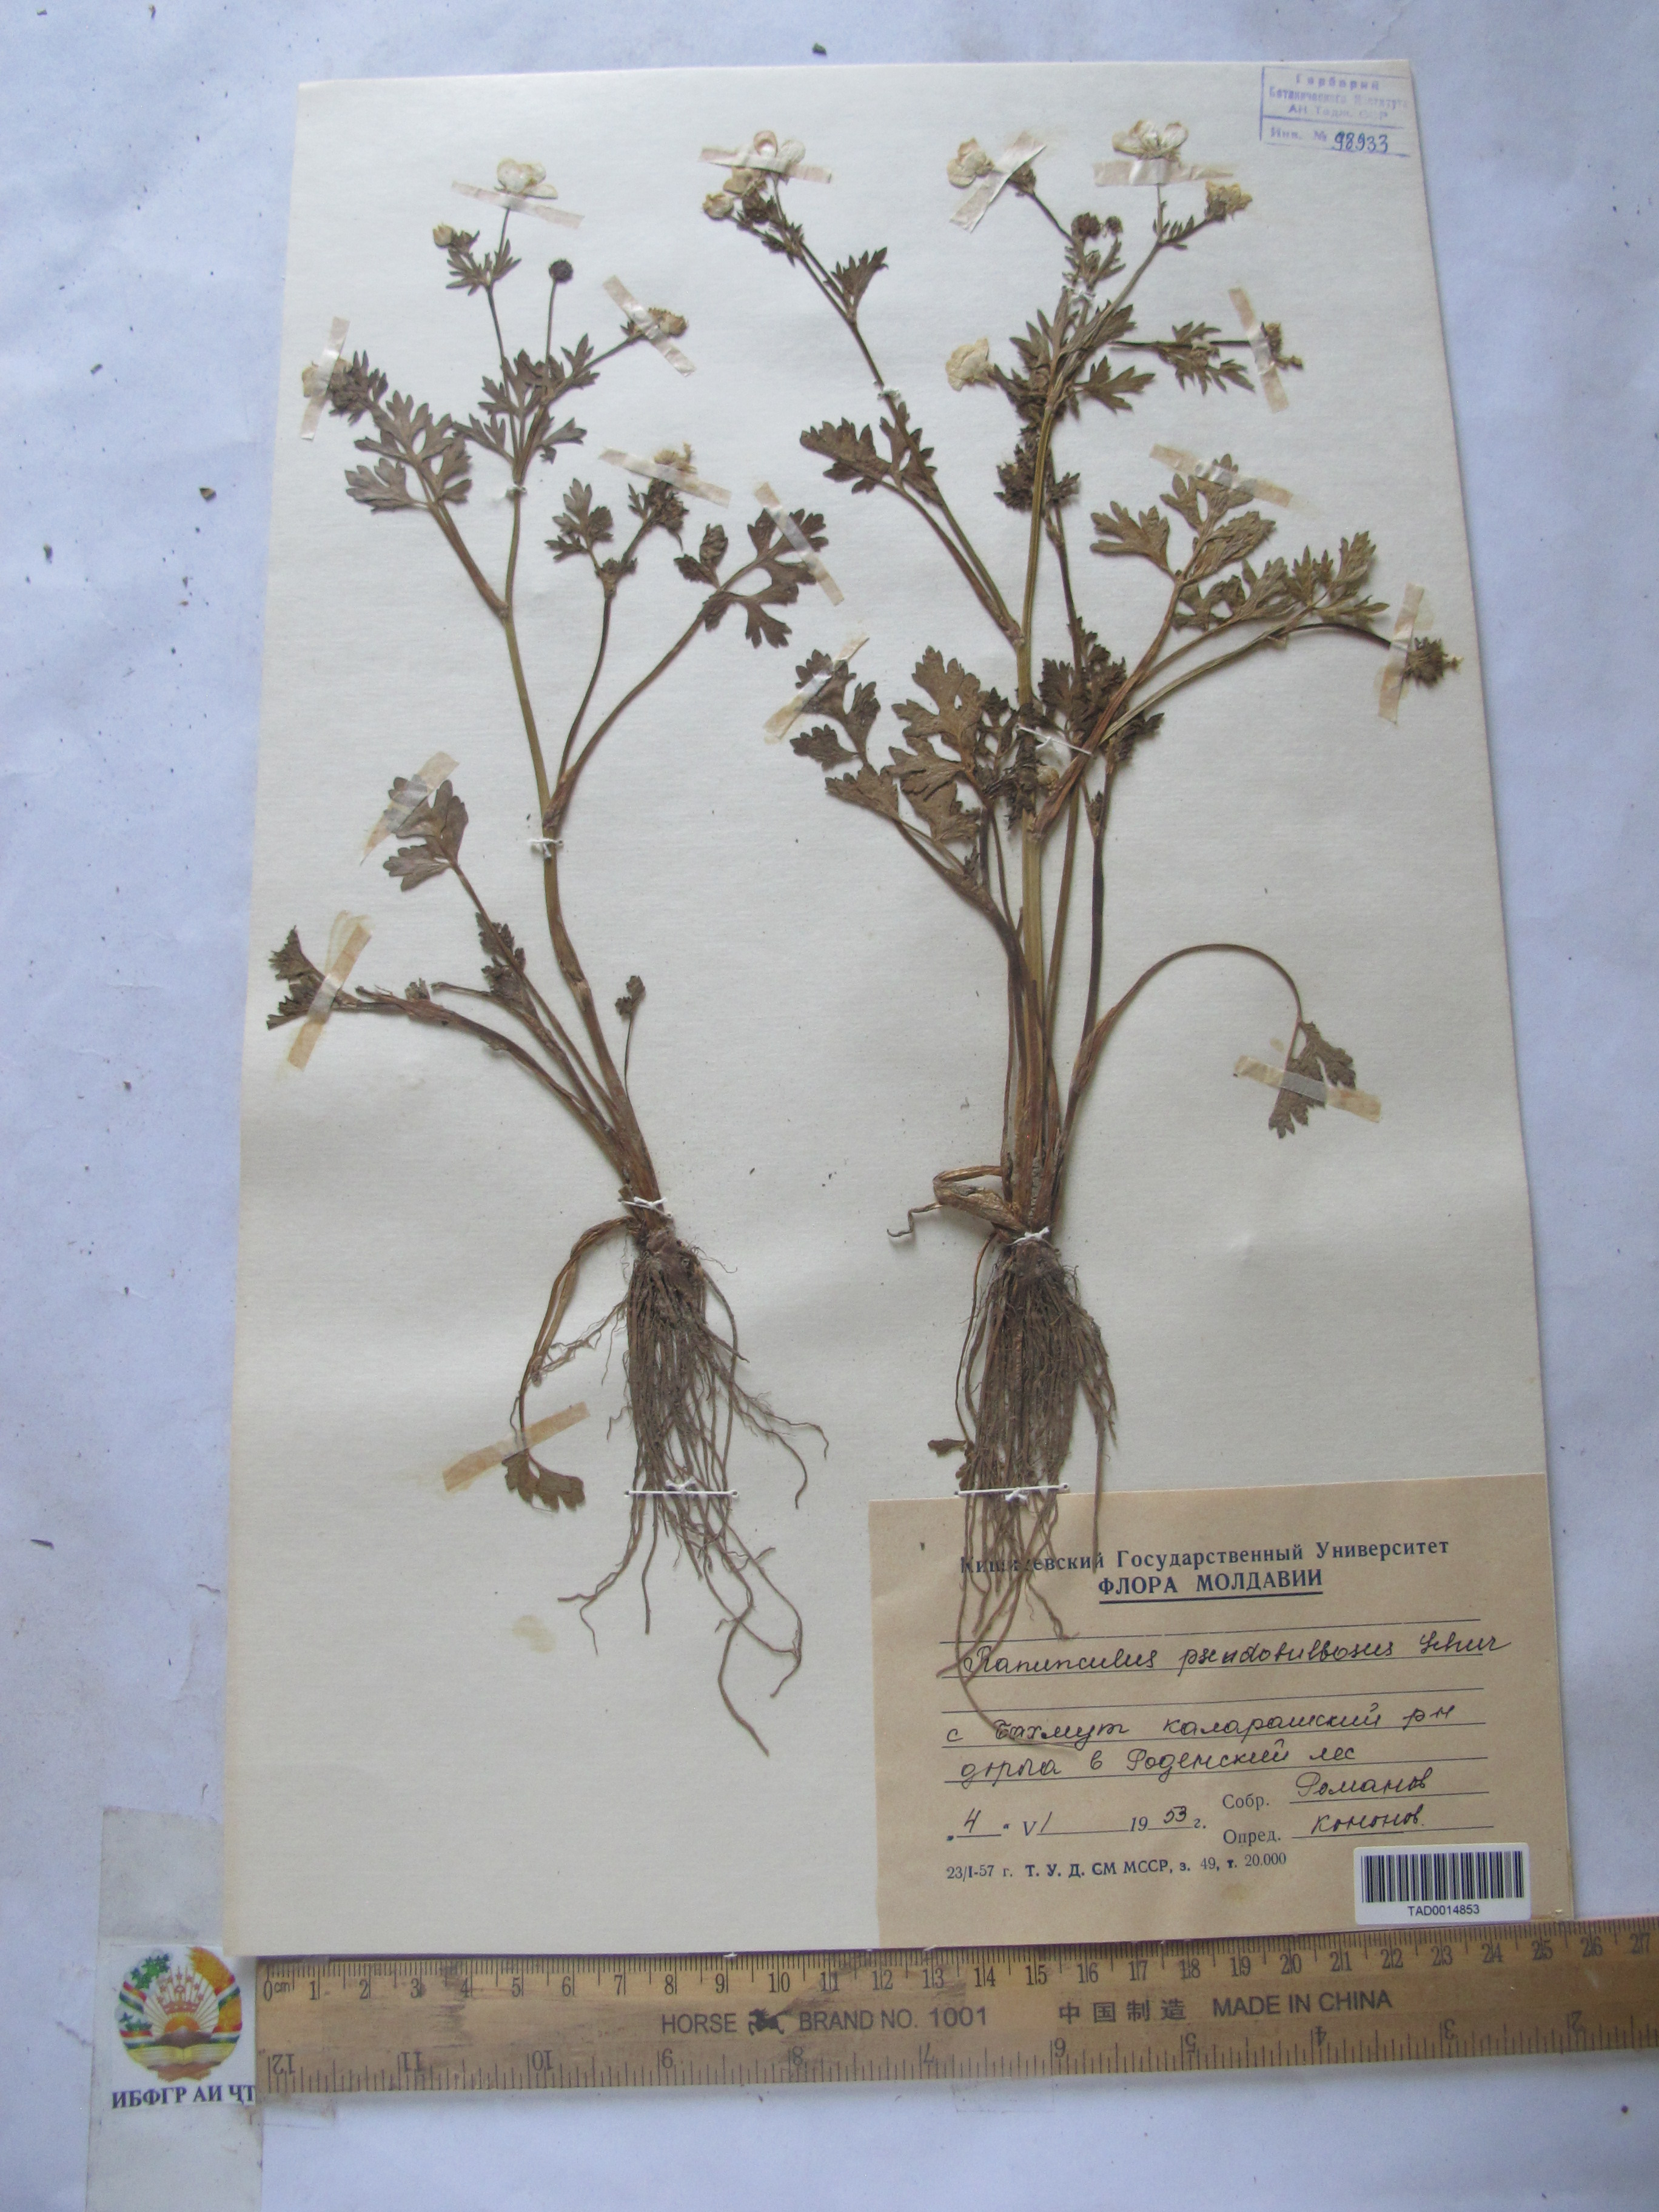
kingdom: Plantae
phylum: Tracheophyta
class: Magnoliopsida
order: Ranunculales
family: Ranunculaceae
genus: Ranunculus
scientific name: Ranunculus sardous
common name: Hairy buttercup
